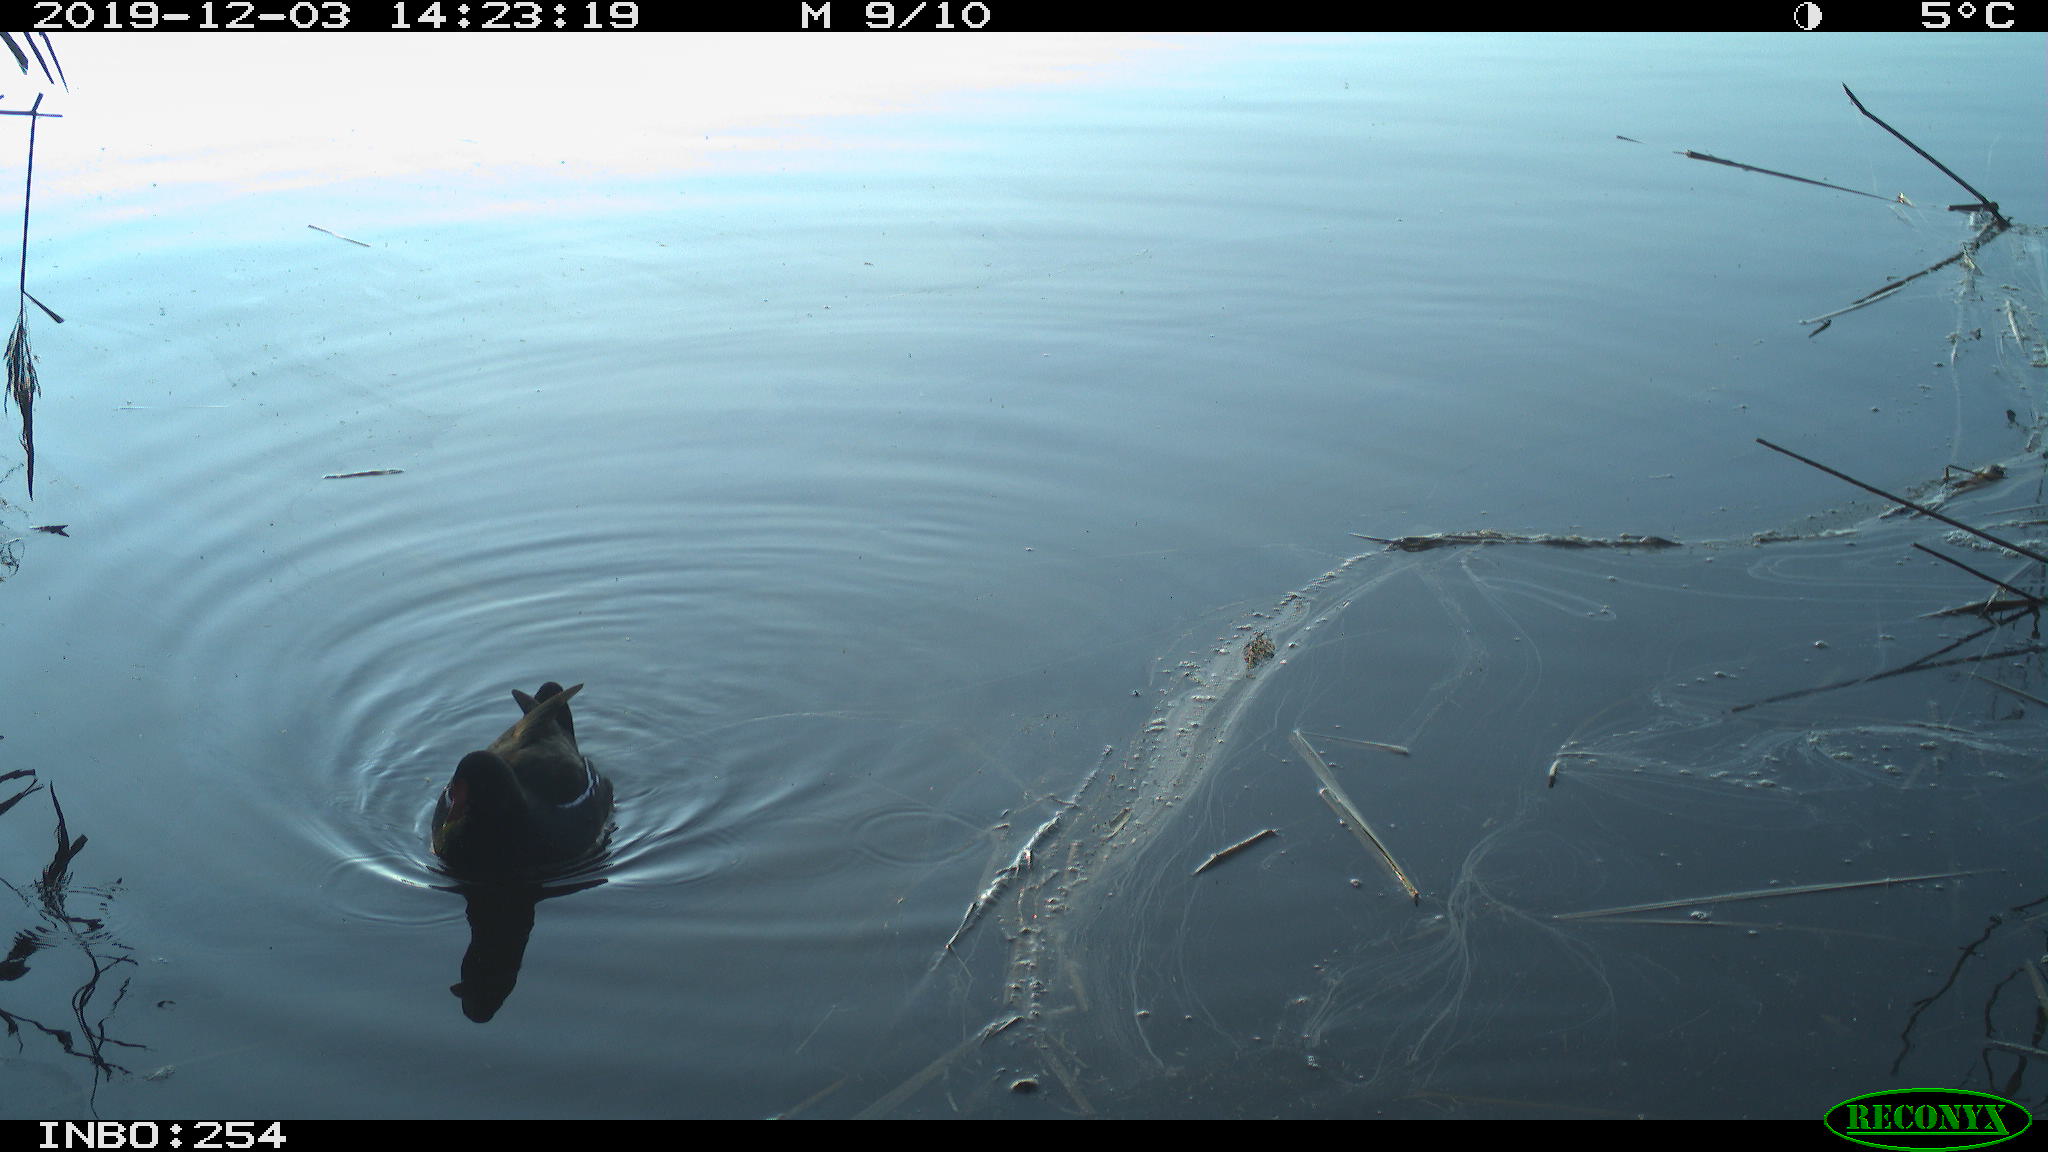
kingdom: Animalia
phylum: Chordata
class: Aves
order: Gruiformes
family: Rallidae
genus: Gallinula
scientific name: Gallinula chloropus
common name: Common moorhen
